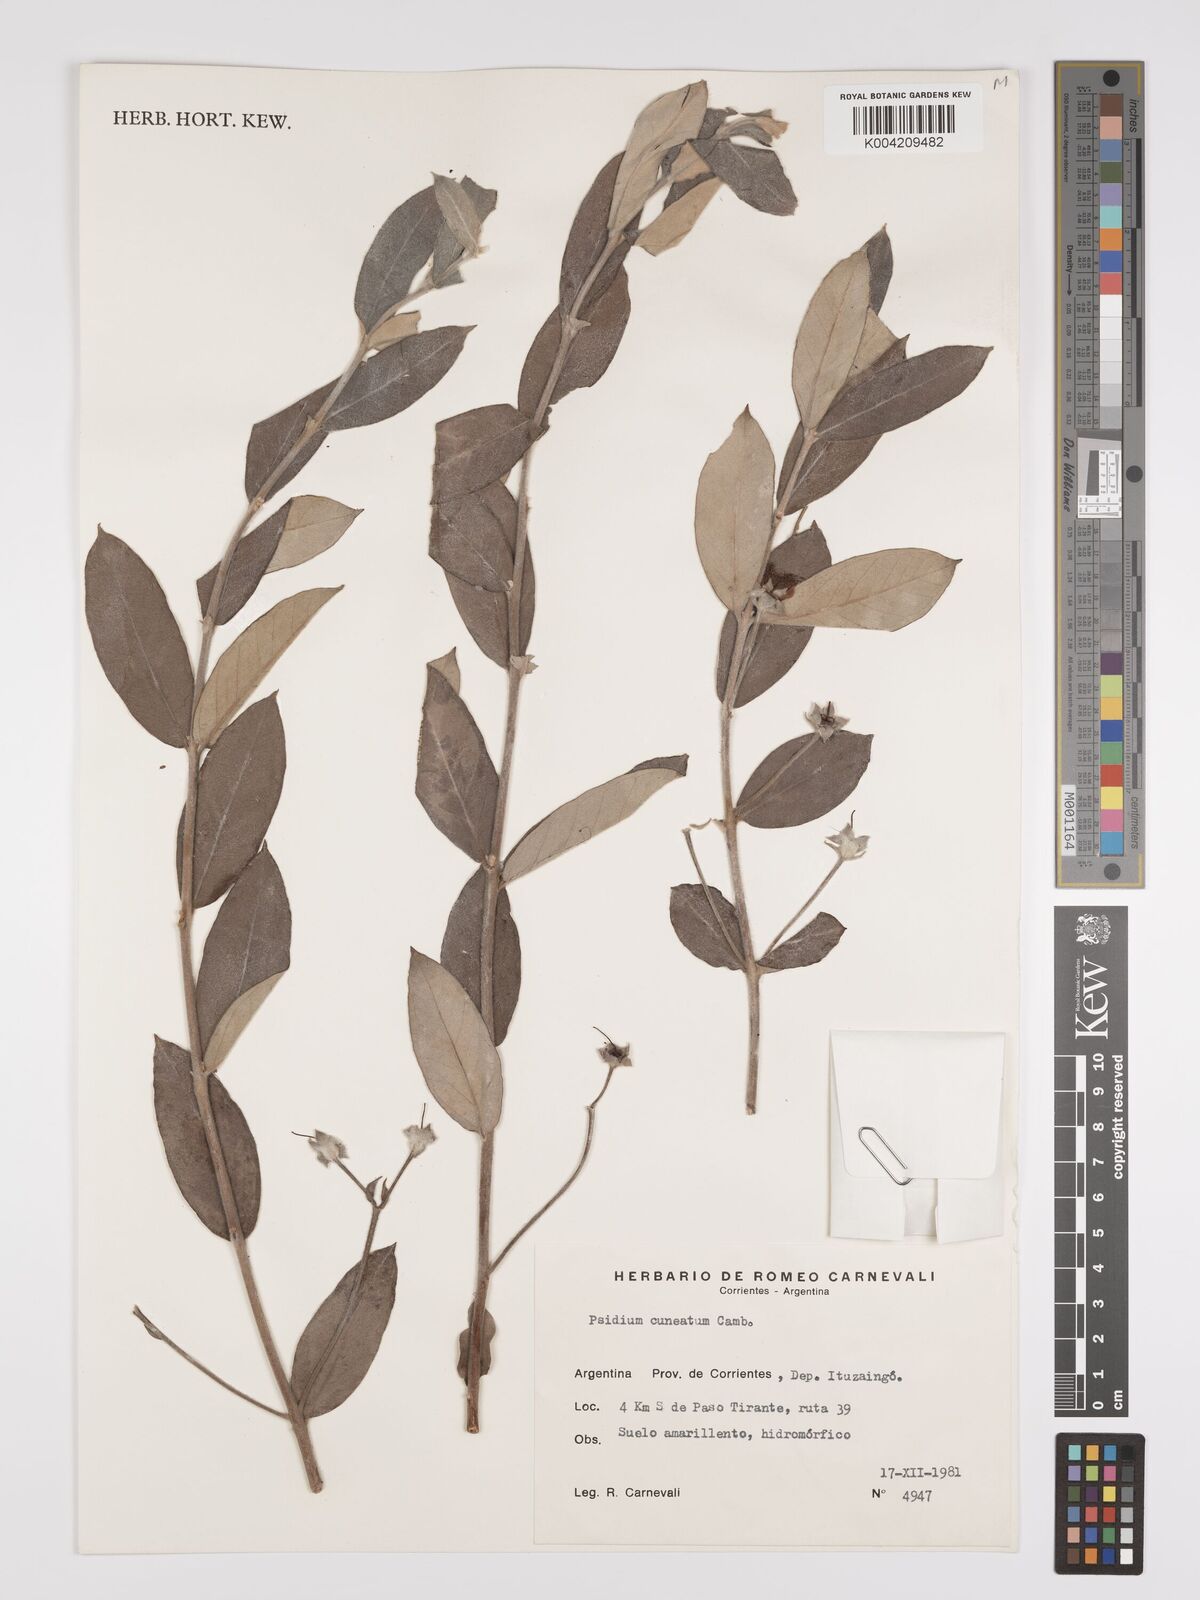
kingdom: Plantae
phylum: Tracheophyta
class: Magnoliopsida
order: Myrtales
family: Myrtaceae
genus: Psidium
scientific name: Psidium australe
